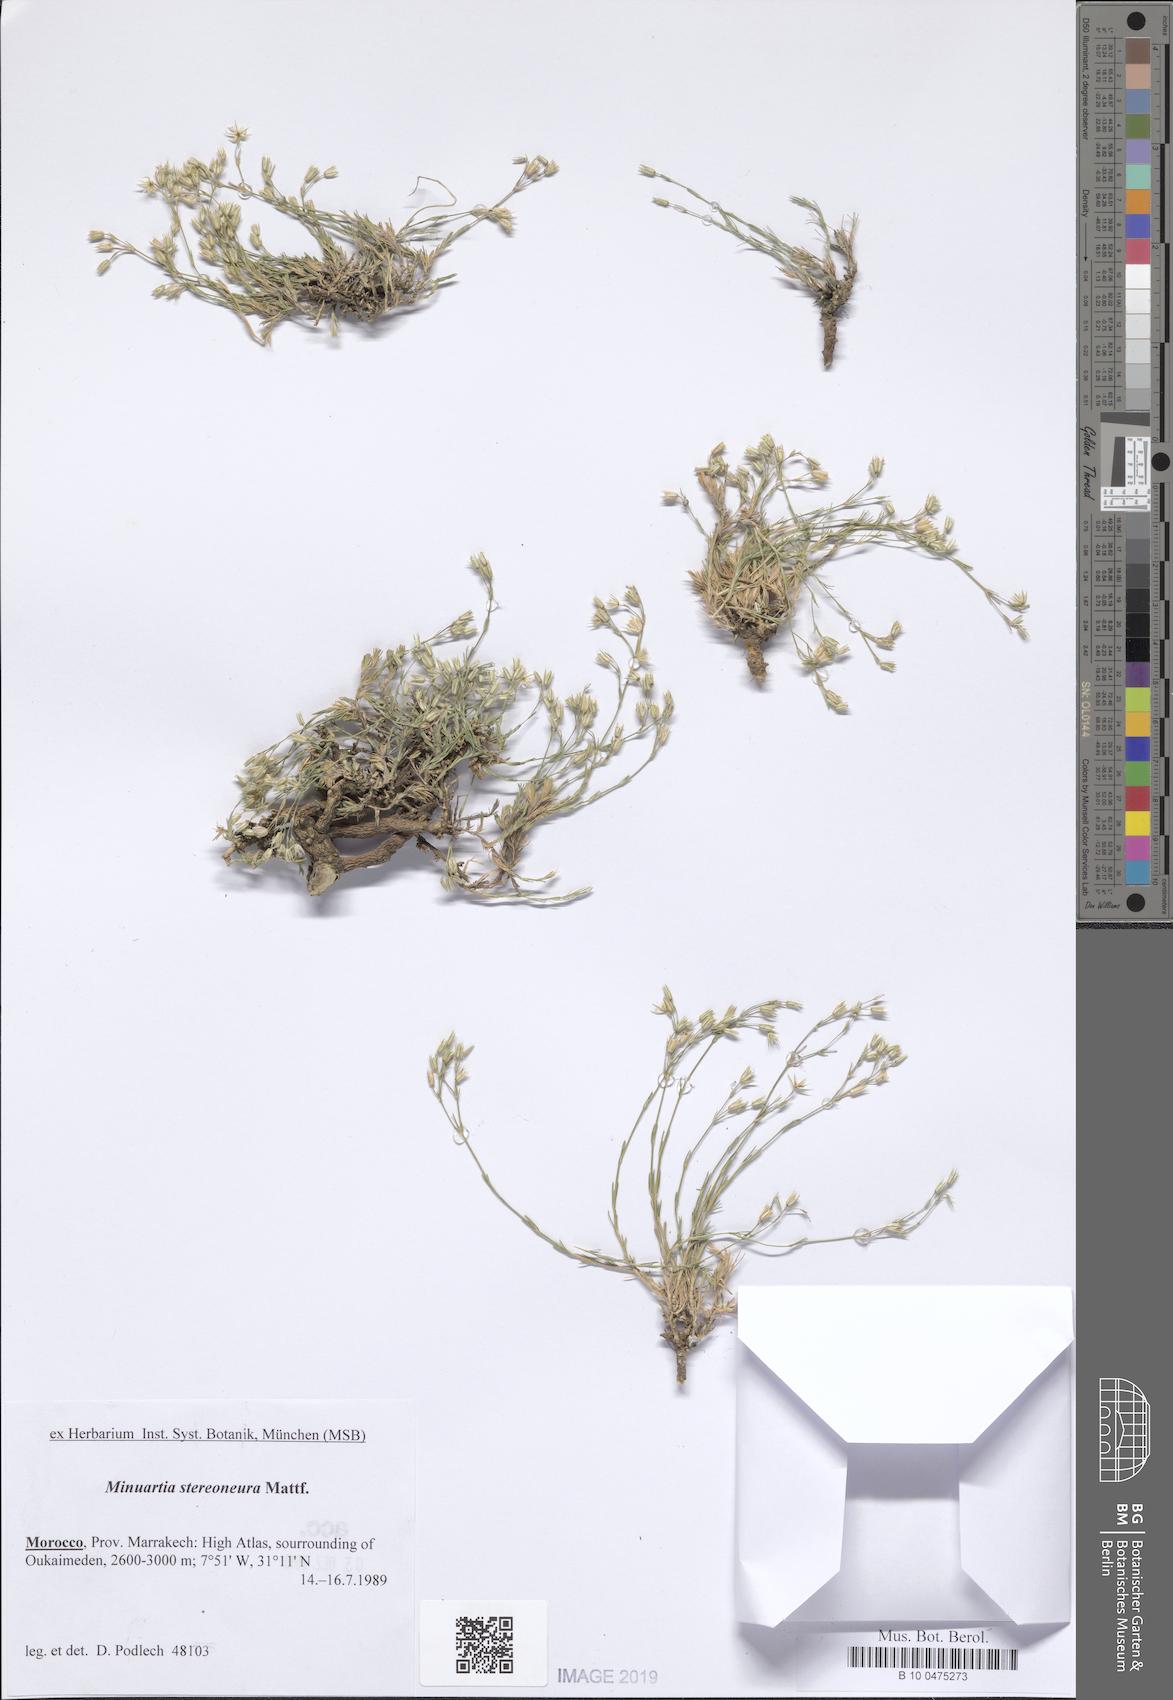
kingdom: Plantae
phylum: Tracheophyta
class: Magnoliopsida
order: Caryophyllales
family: Caryophyllaceae
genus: Minuartia
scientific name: Minuartia stereoneura
